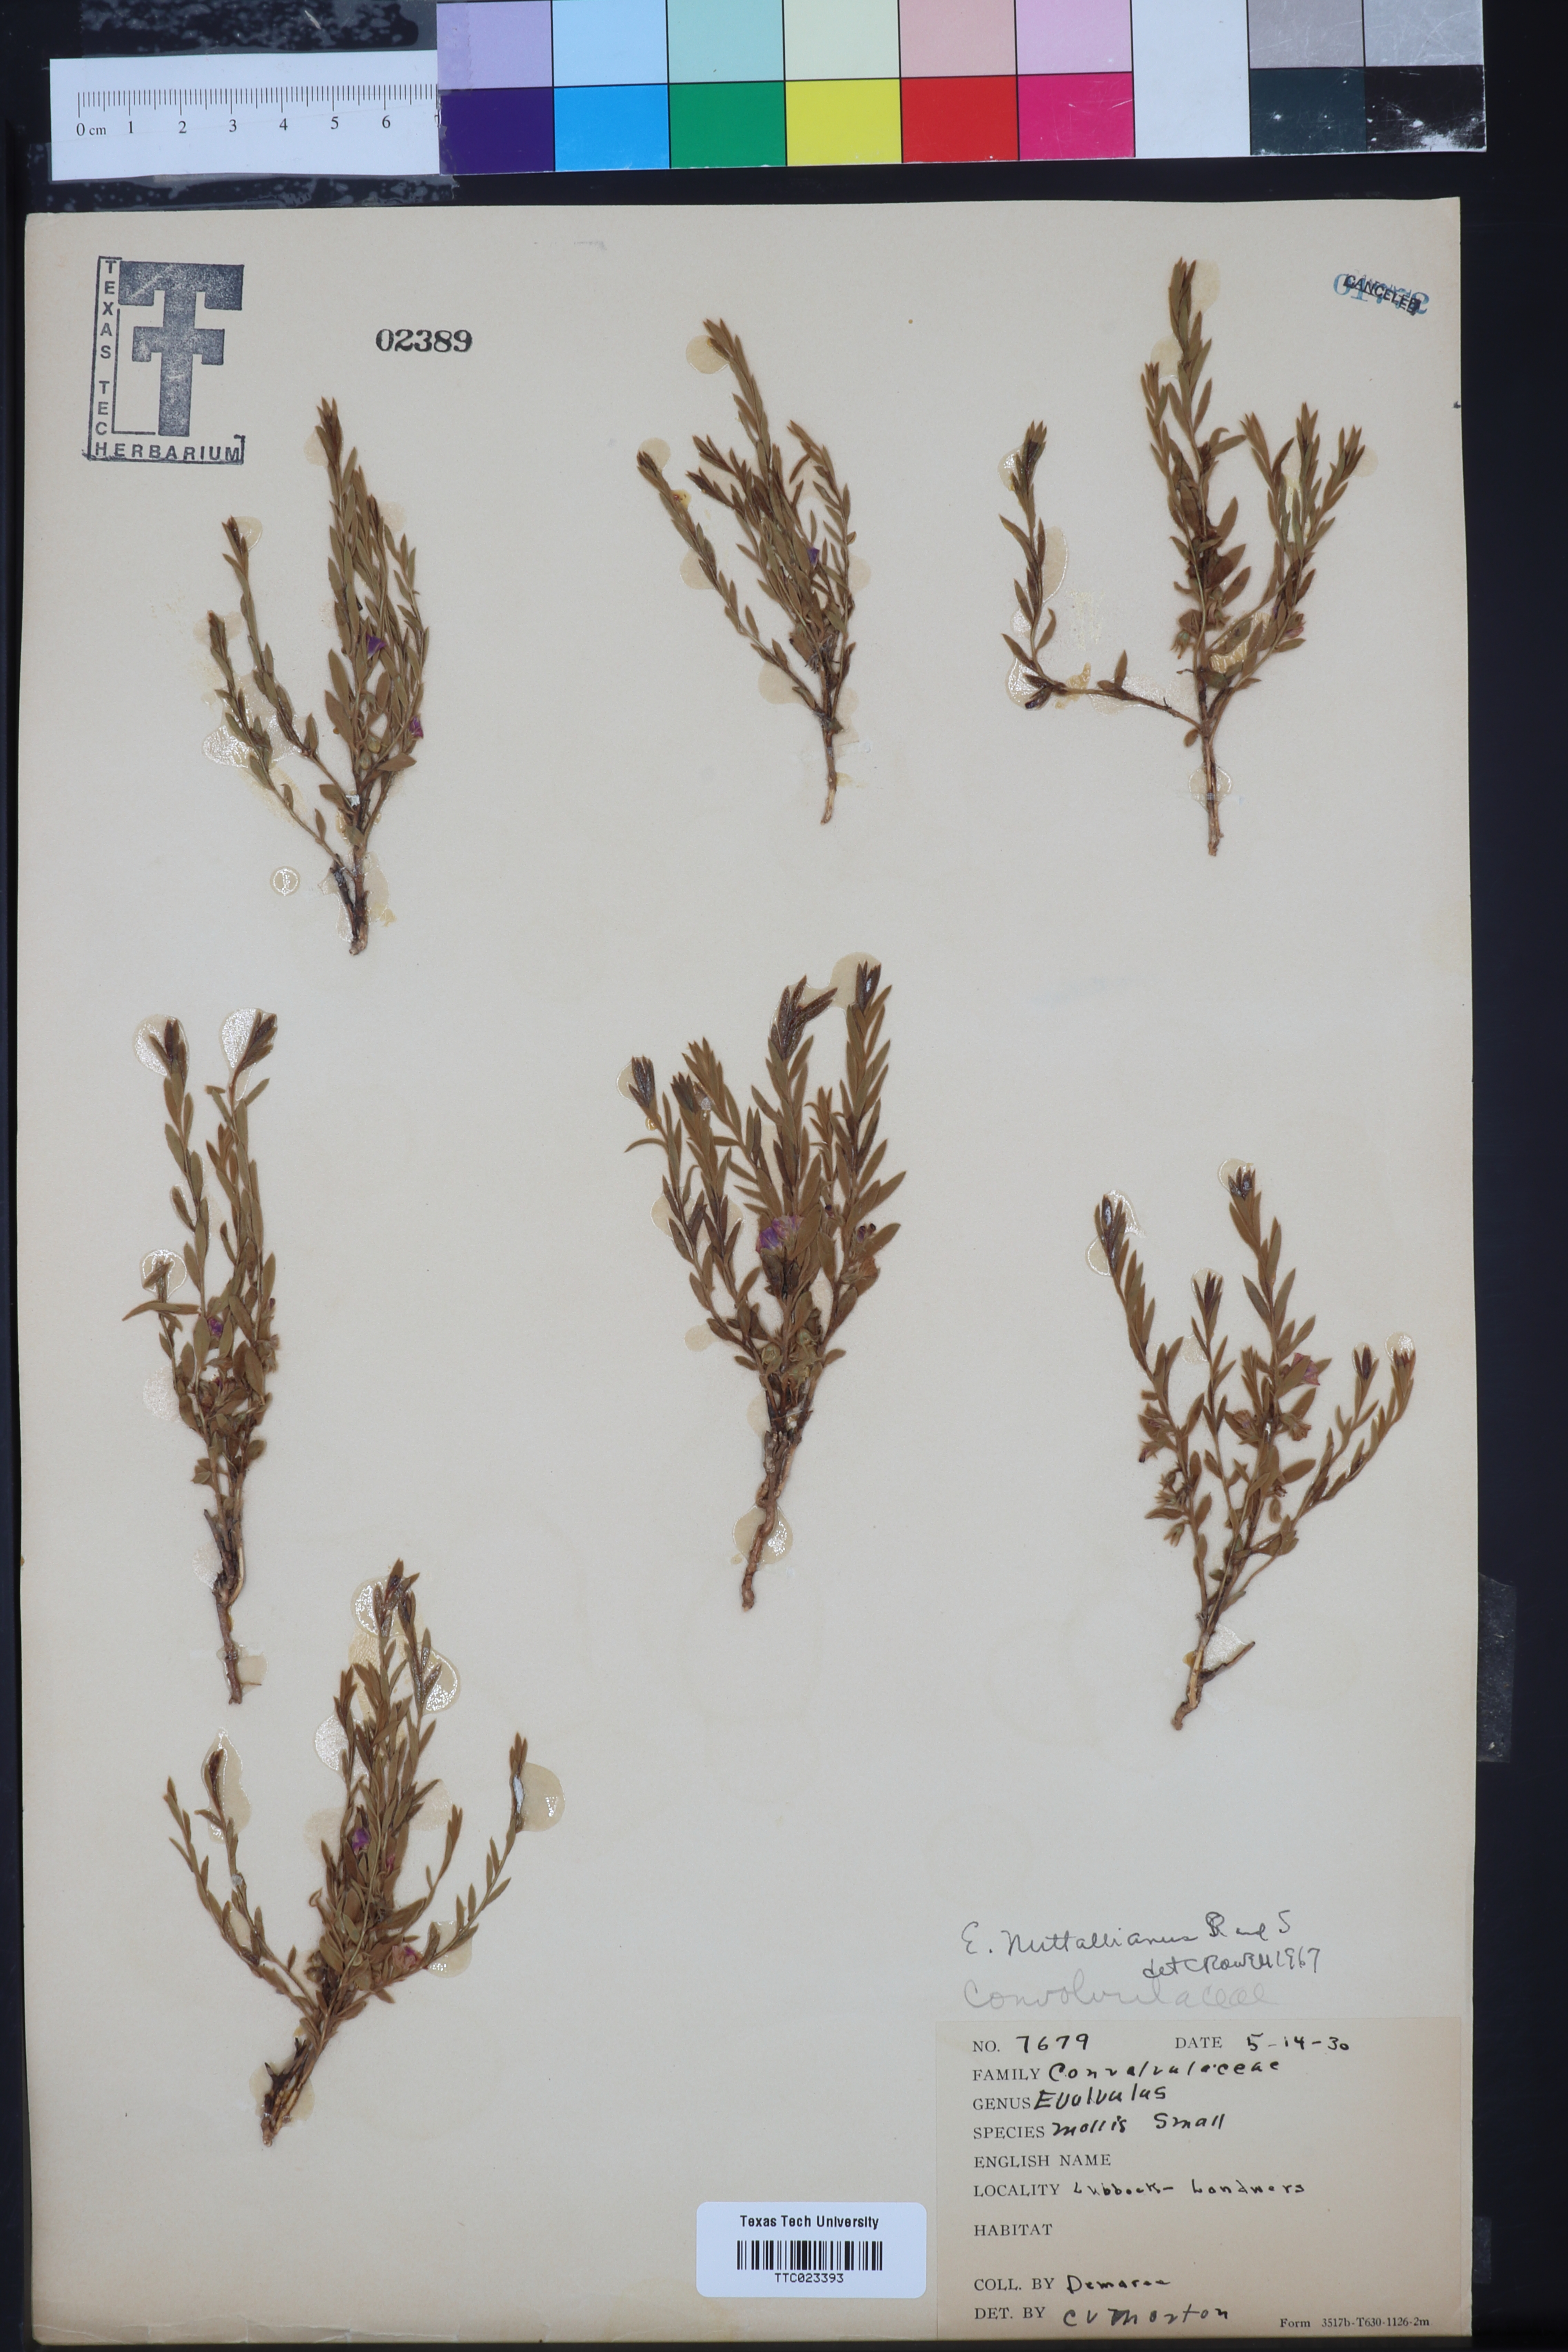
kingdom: Plantae
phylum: Tracheophyta
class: Magnoliopsida
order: Solanales
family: Convolvulaceae
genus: Evolvulus
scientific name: Evolvulus nuttallianus
